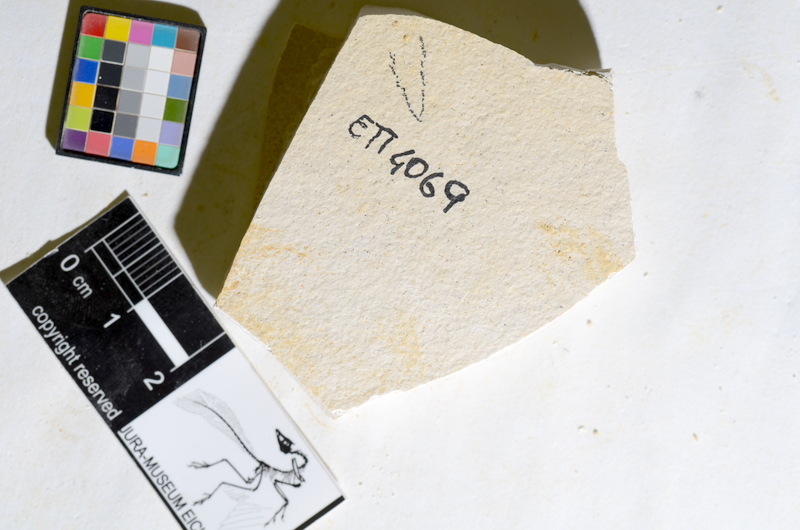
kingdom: Animalia
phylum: Chordata
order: Salmoniformes
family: Orthogonikleithridae
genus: Orthogonikleithrus
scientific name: Orthogonikleithrus hoelli
